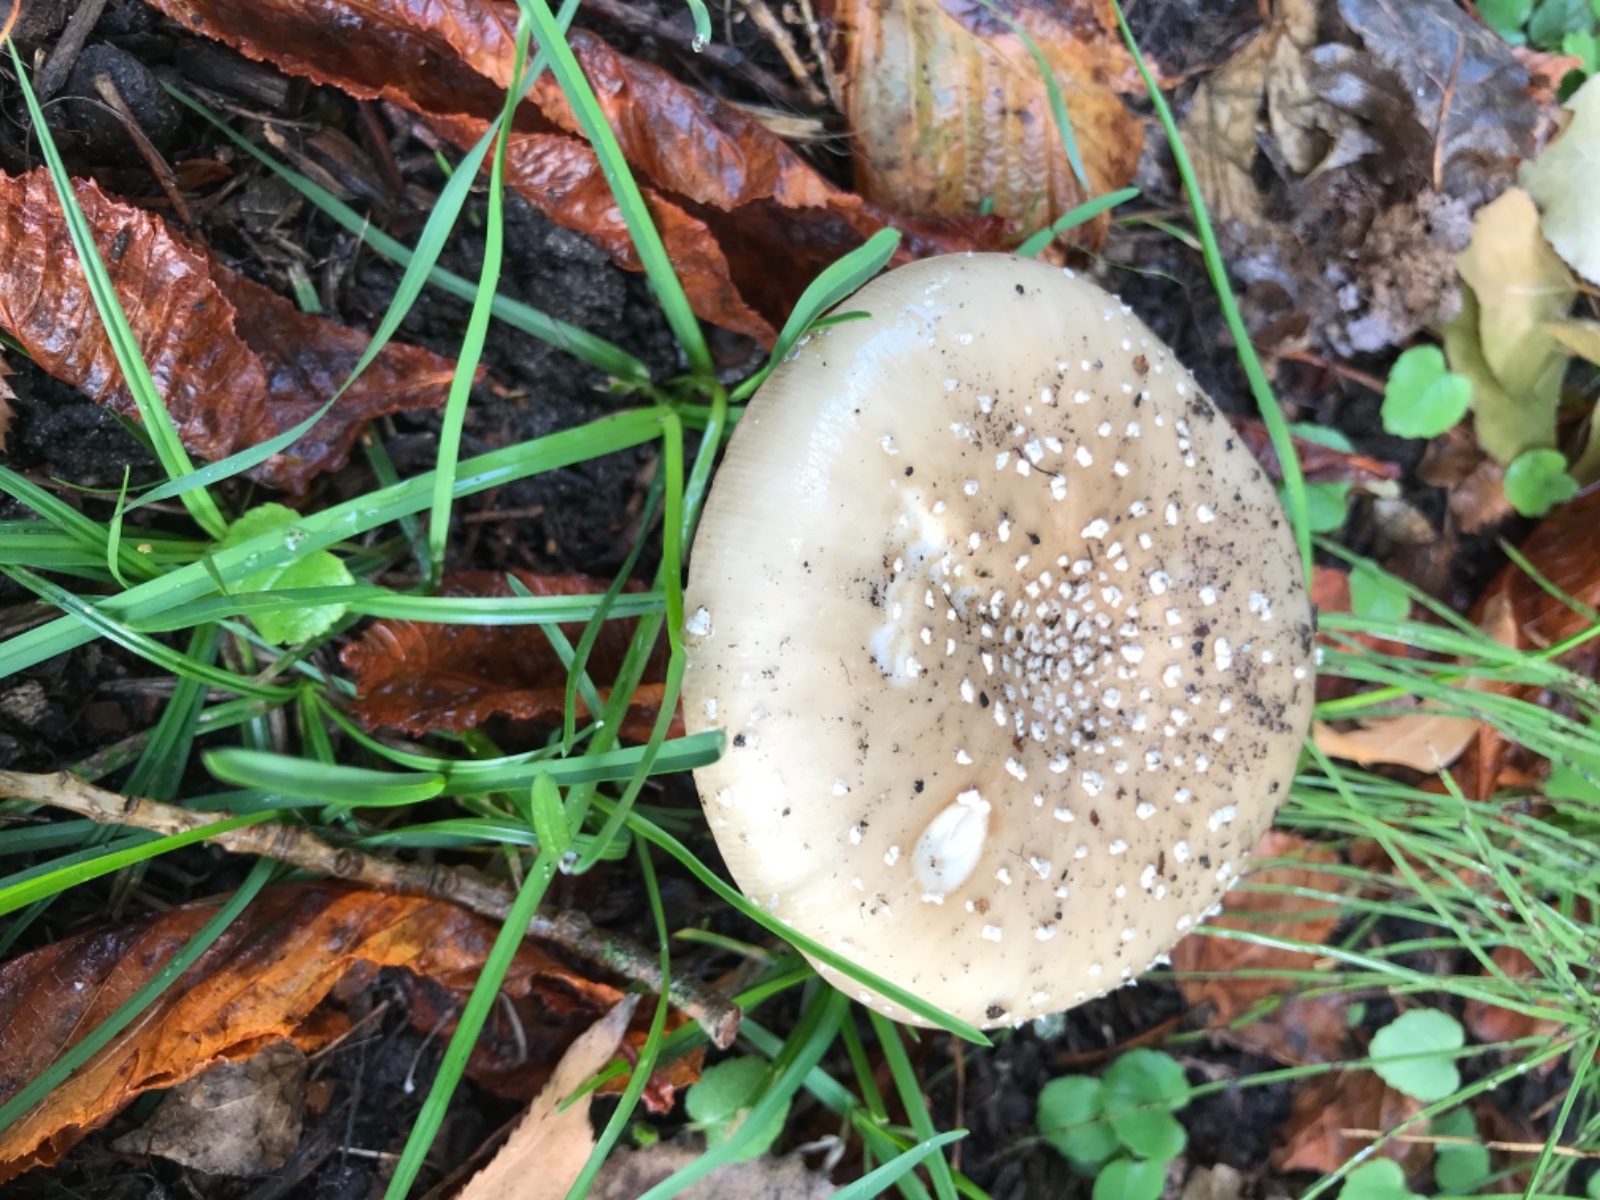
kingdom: Fungi
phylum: Basidiomycota
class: Agaricomycetes
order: Agaricales
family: Amanitaceae
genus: Amanita
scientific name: Amanita
